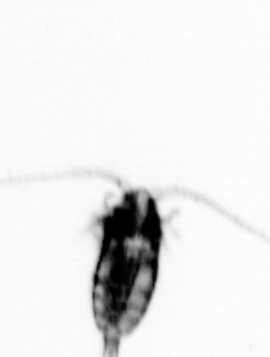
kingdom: Animalia
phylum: Arthropoda
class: Copepoda
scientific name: Copepoda
